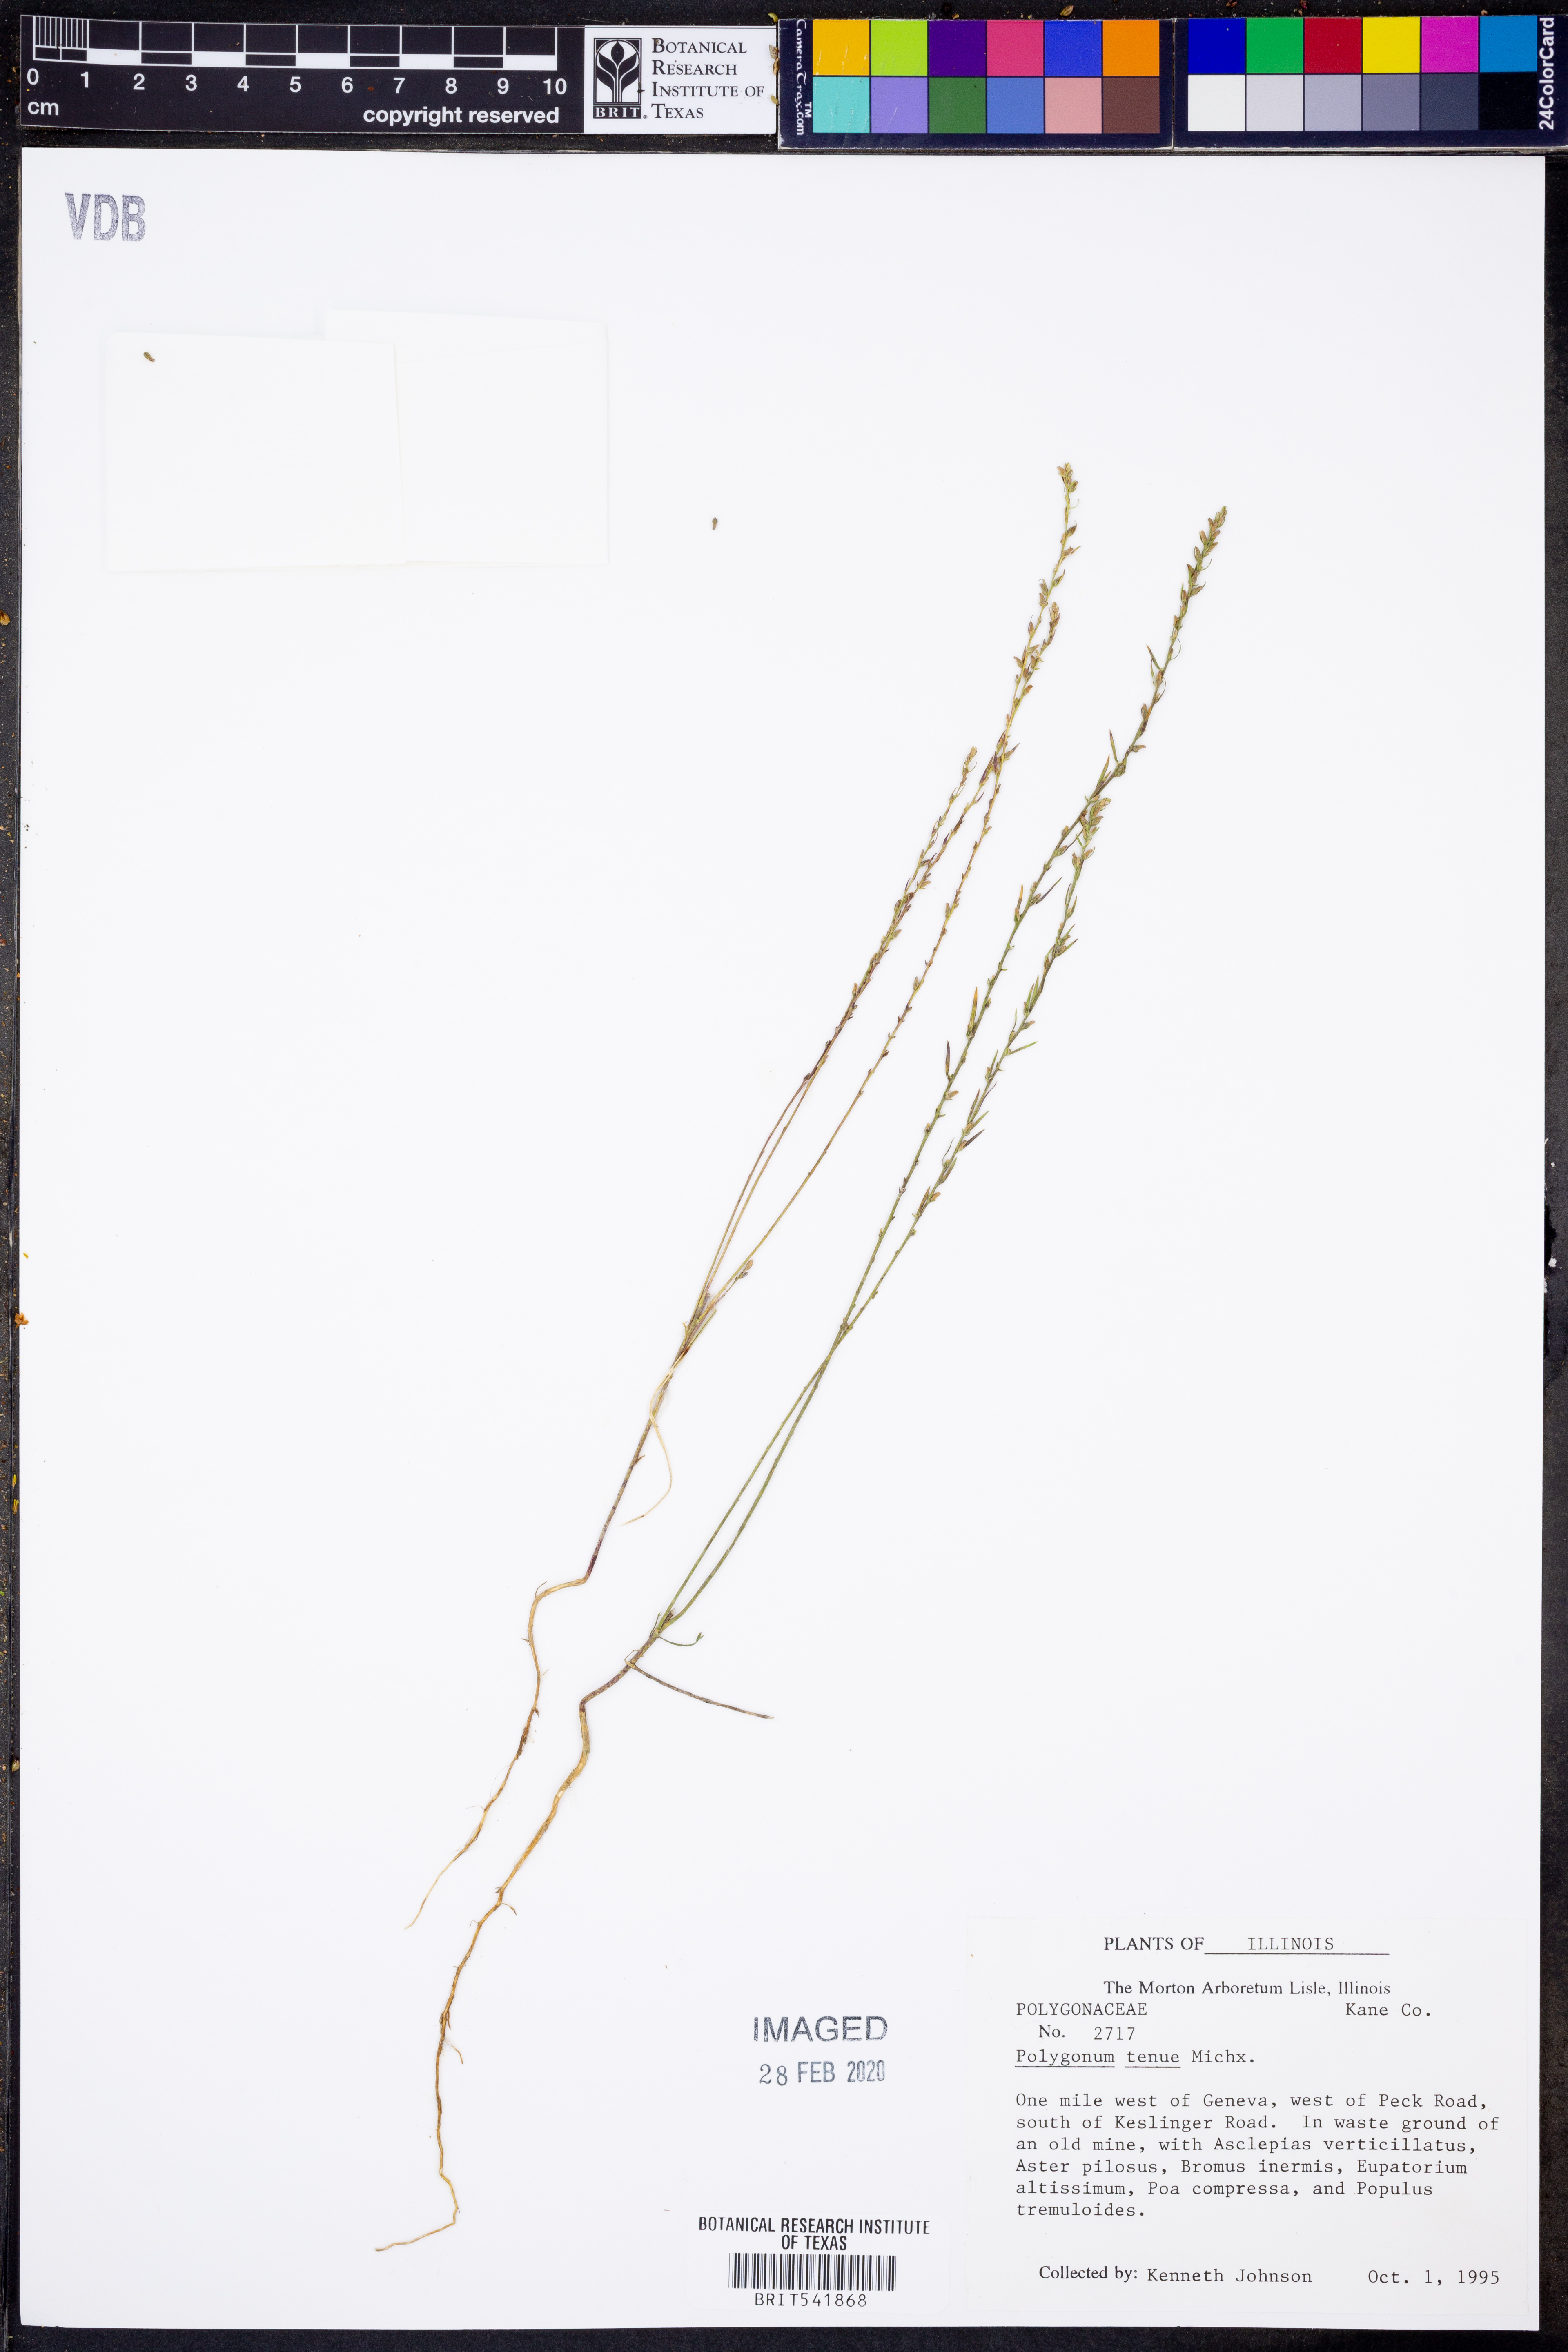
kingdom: Plantae
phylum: Tracheophyta
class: Magnoliopsida
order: Caryophyllales
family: Polygonaceae
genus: Polygonum
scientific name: Polygonum tenue
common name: Pleat-leaved knotweed
